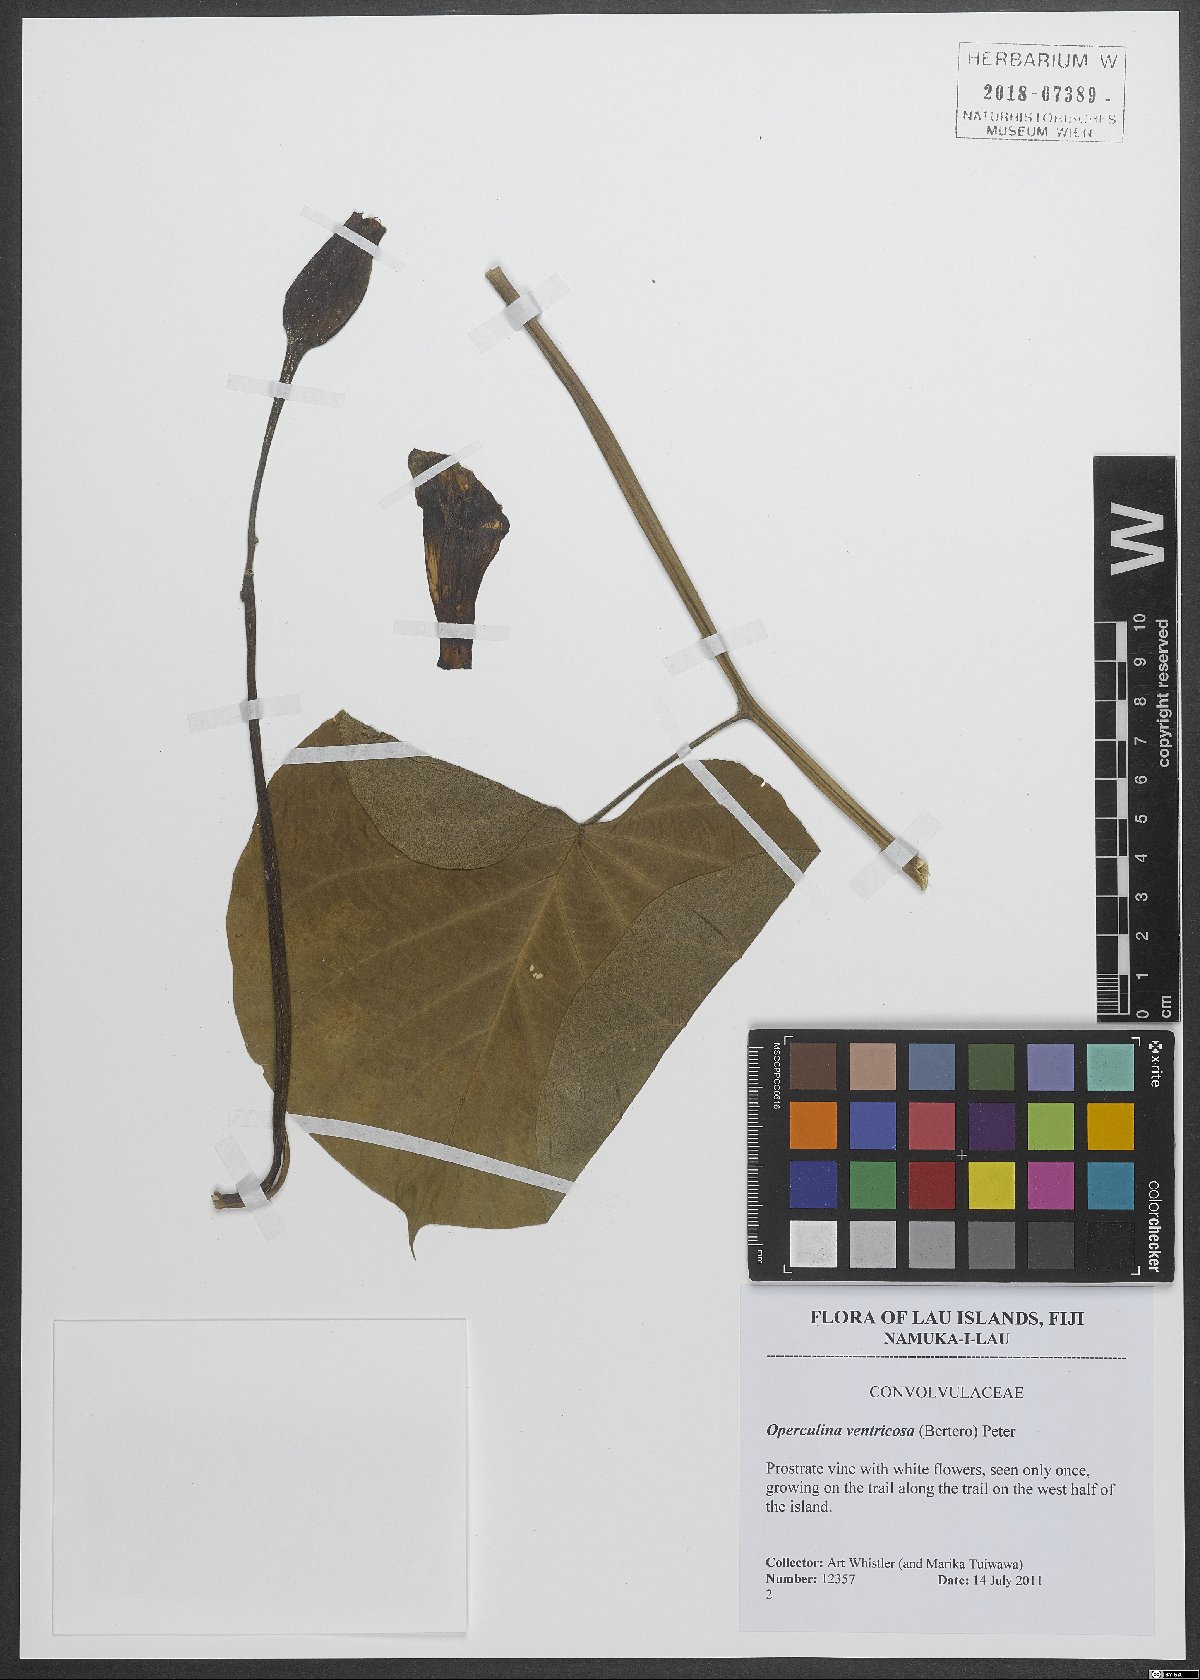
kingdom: Plantae
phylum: Tracheophyta
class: Magnoliopsida
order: Solanales
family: Convolvulaceae
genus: Operculina
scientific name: Operculina ventricosa
